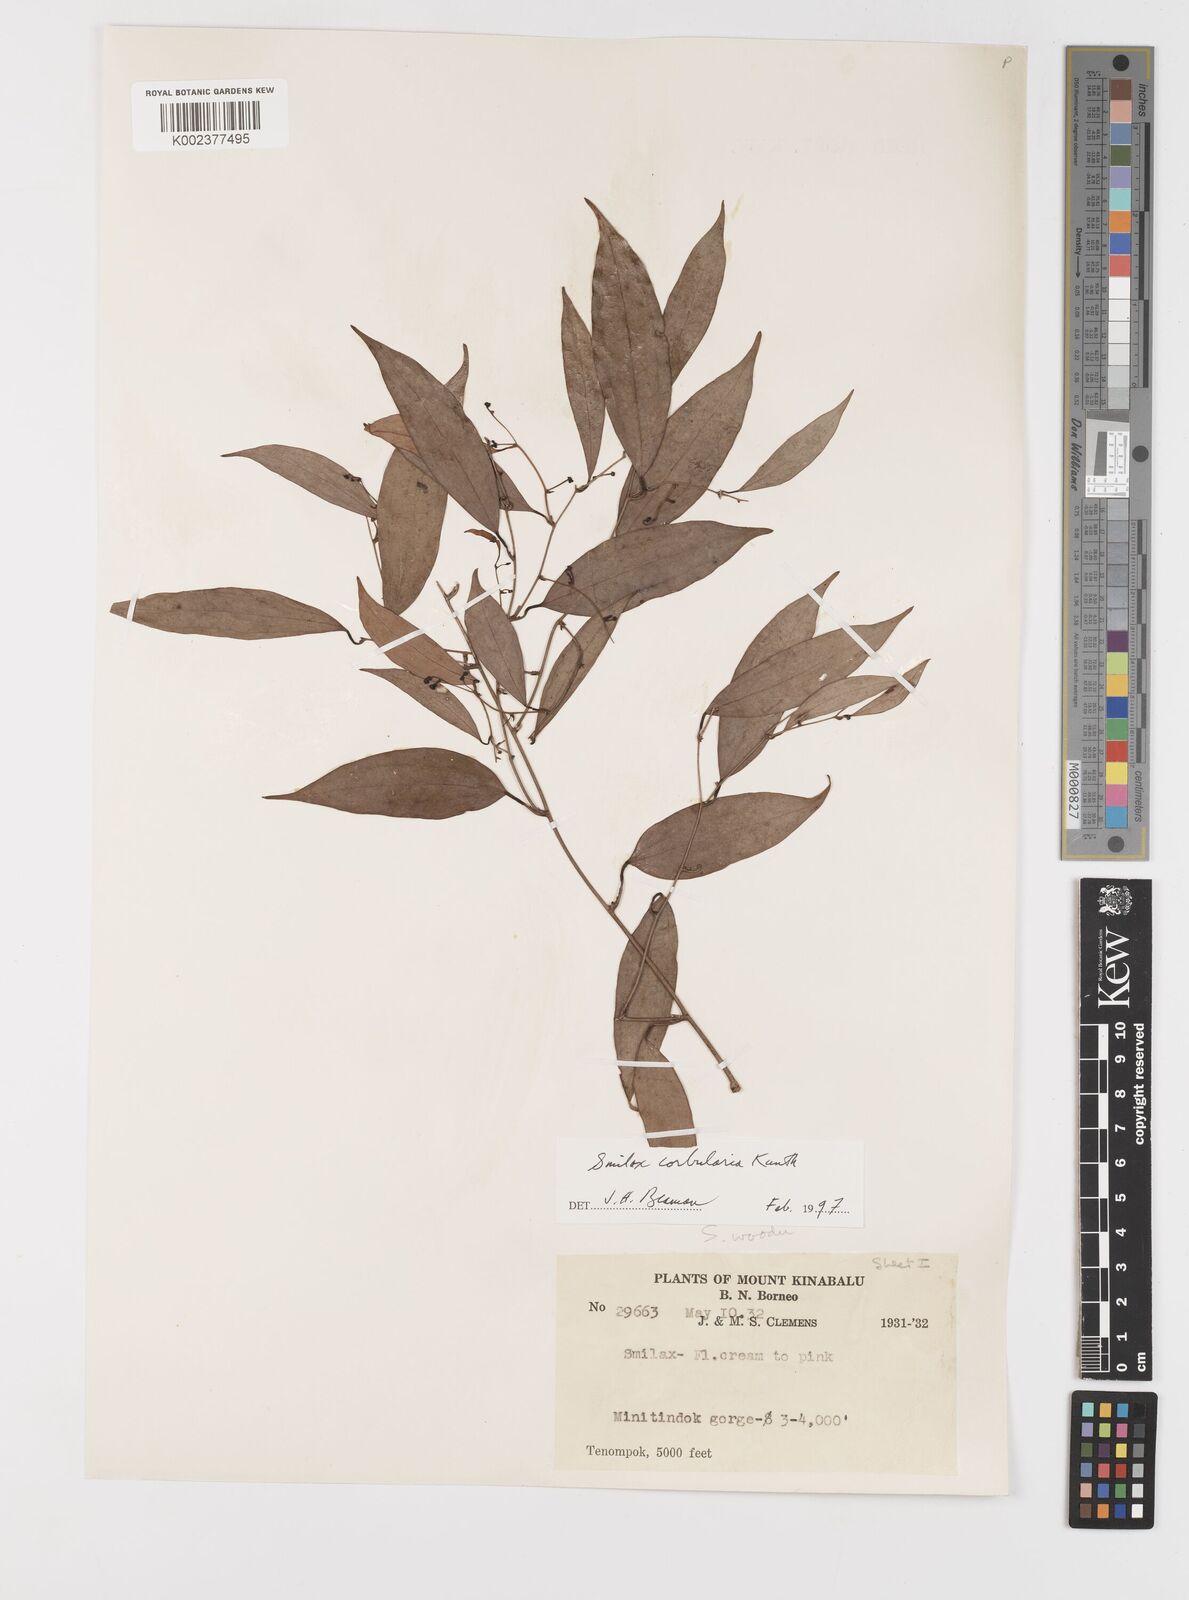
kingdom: Plantae
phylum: Tracheophyta
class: Liliopsida
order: Liliales
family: Smilacaceae
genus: Smilax
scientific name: Smilax corbularia
